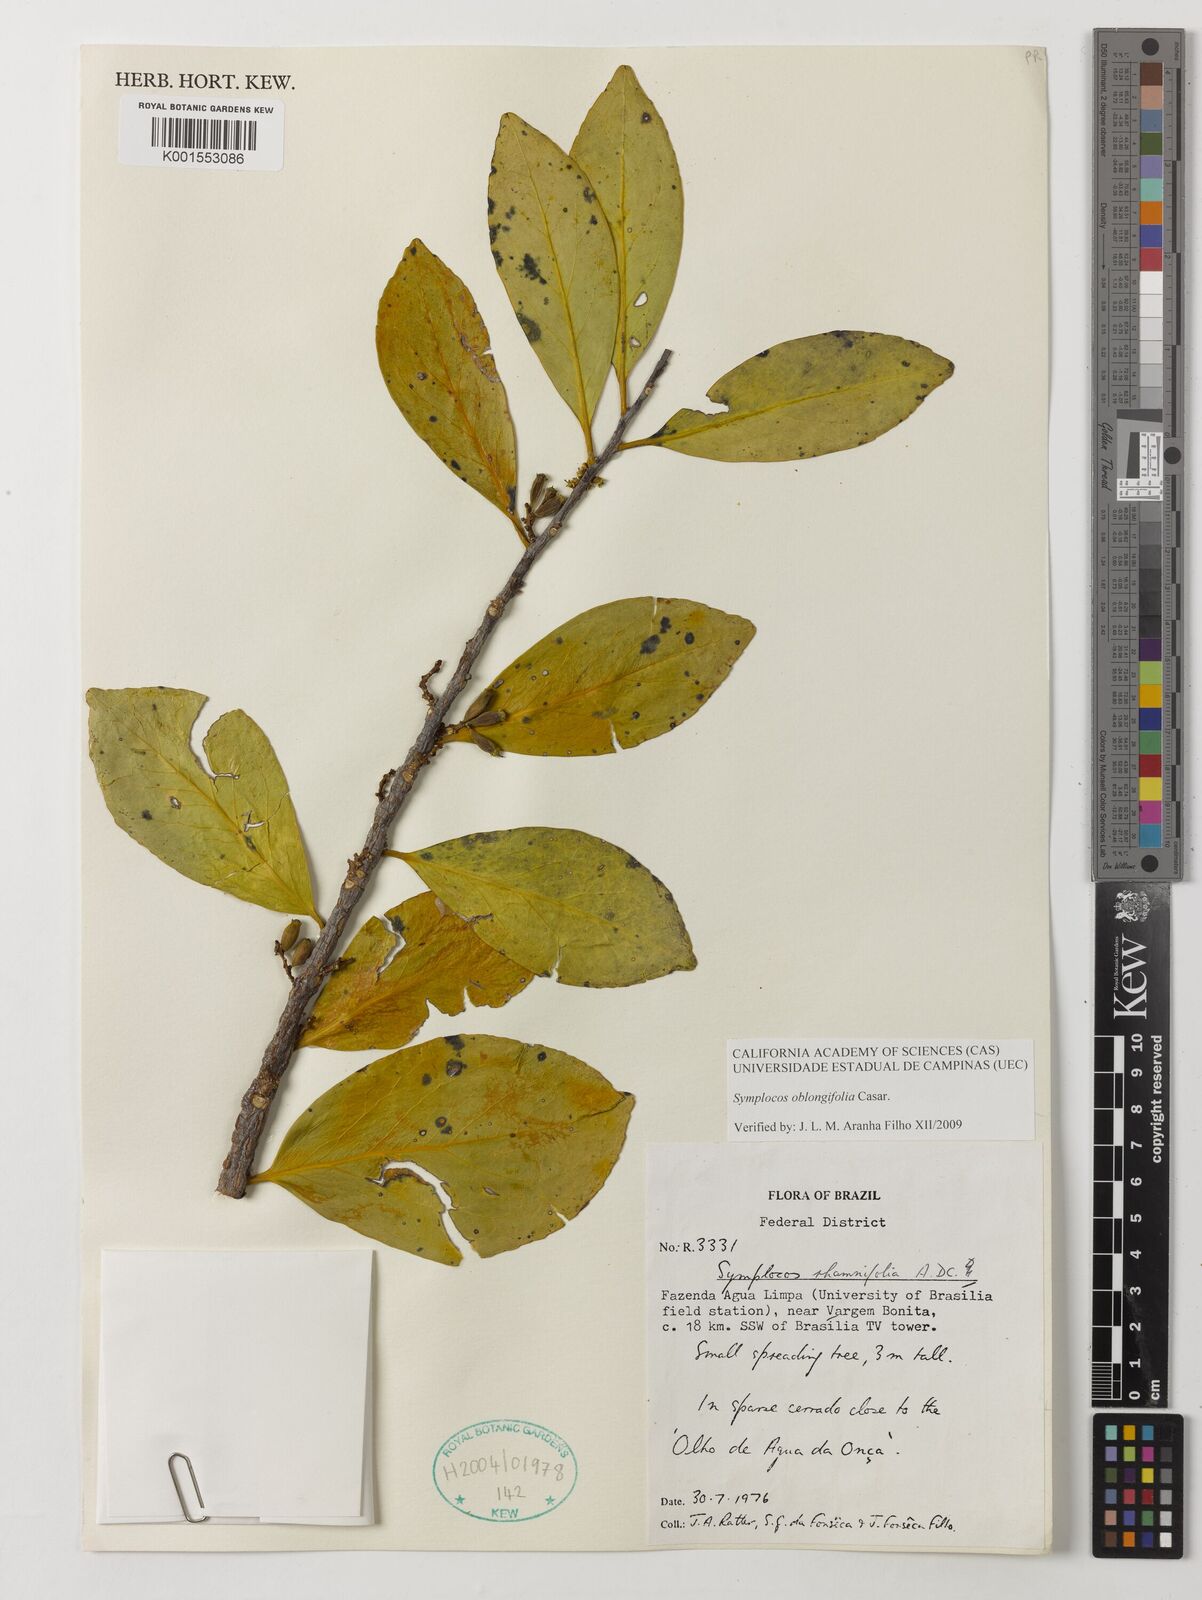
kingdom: Plantae
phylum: Tracheophyta
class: Magnoliopsida
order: Ericales
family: Symplocaceae
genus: Symplocos
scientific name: Symplocos oblongifolia
